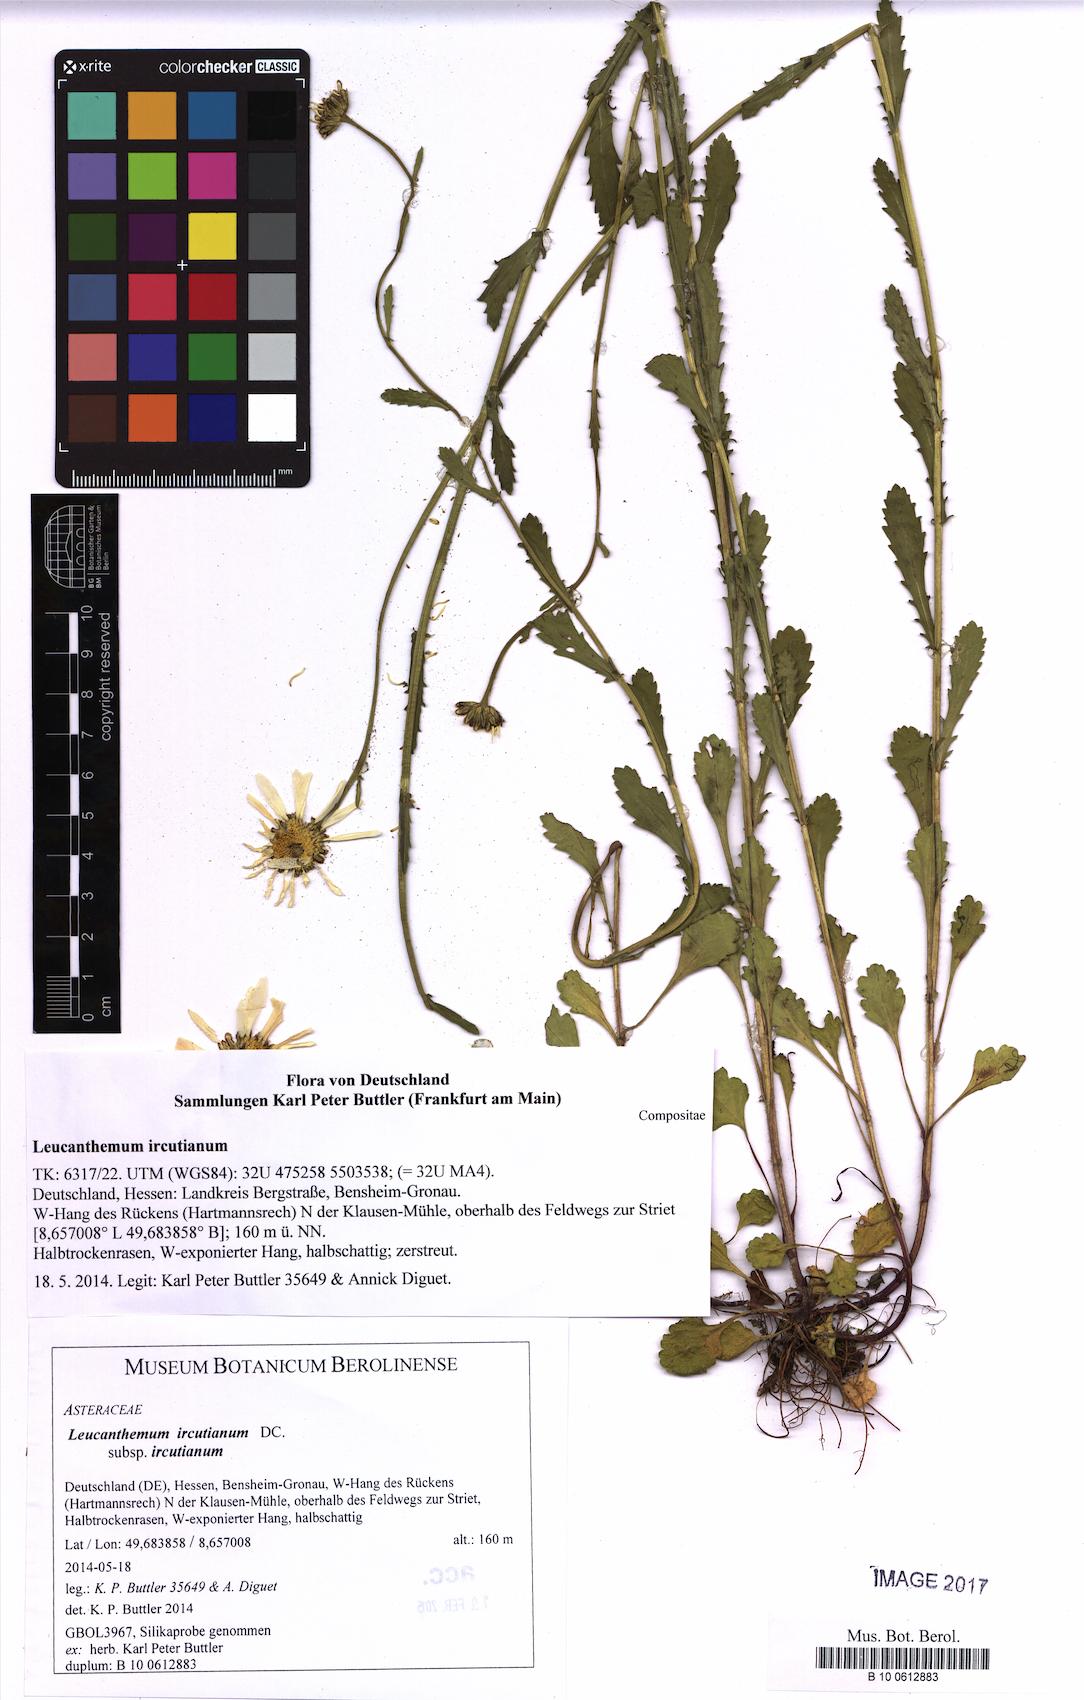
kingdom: Plantae
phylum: Tracheophyta
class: Magnoliopsida
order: Asterales
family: Asteraceae
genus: Leucanthemum
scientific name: Leucanthemum ircutianum
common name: Daisy
